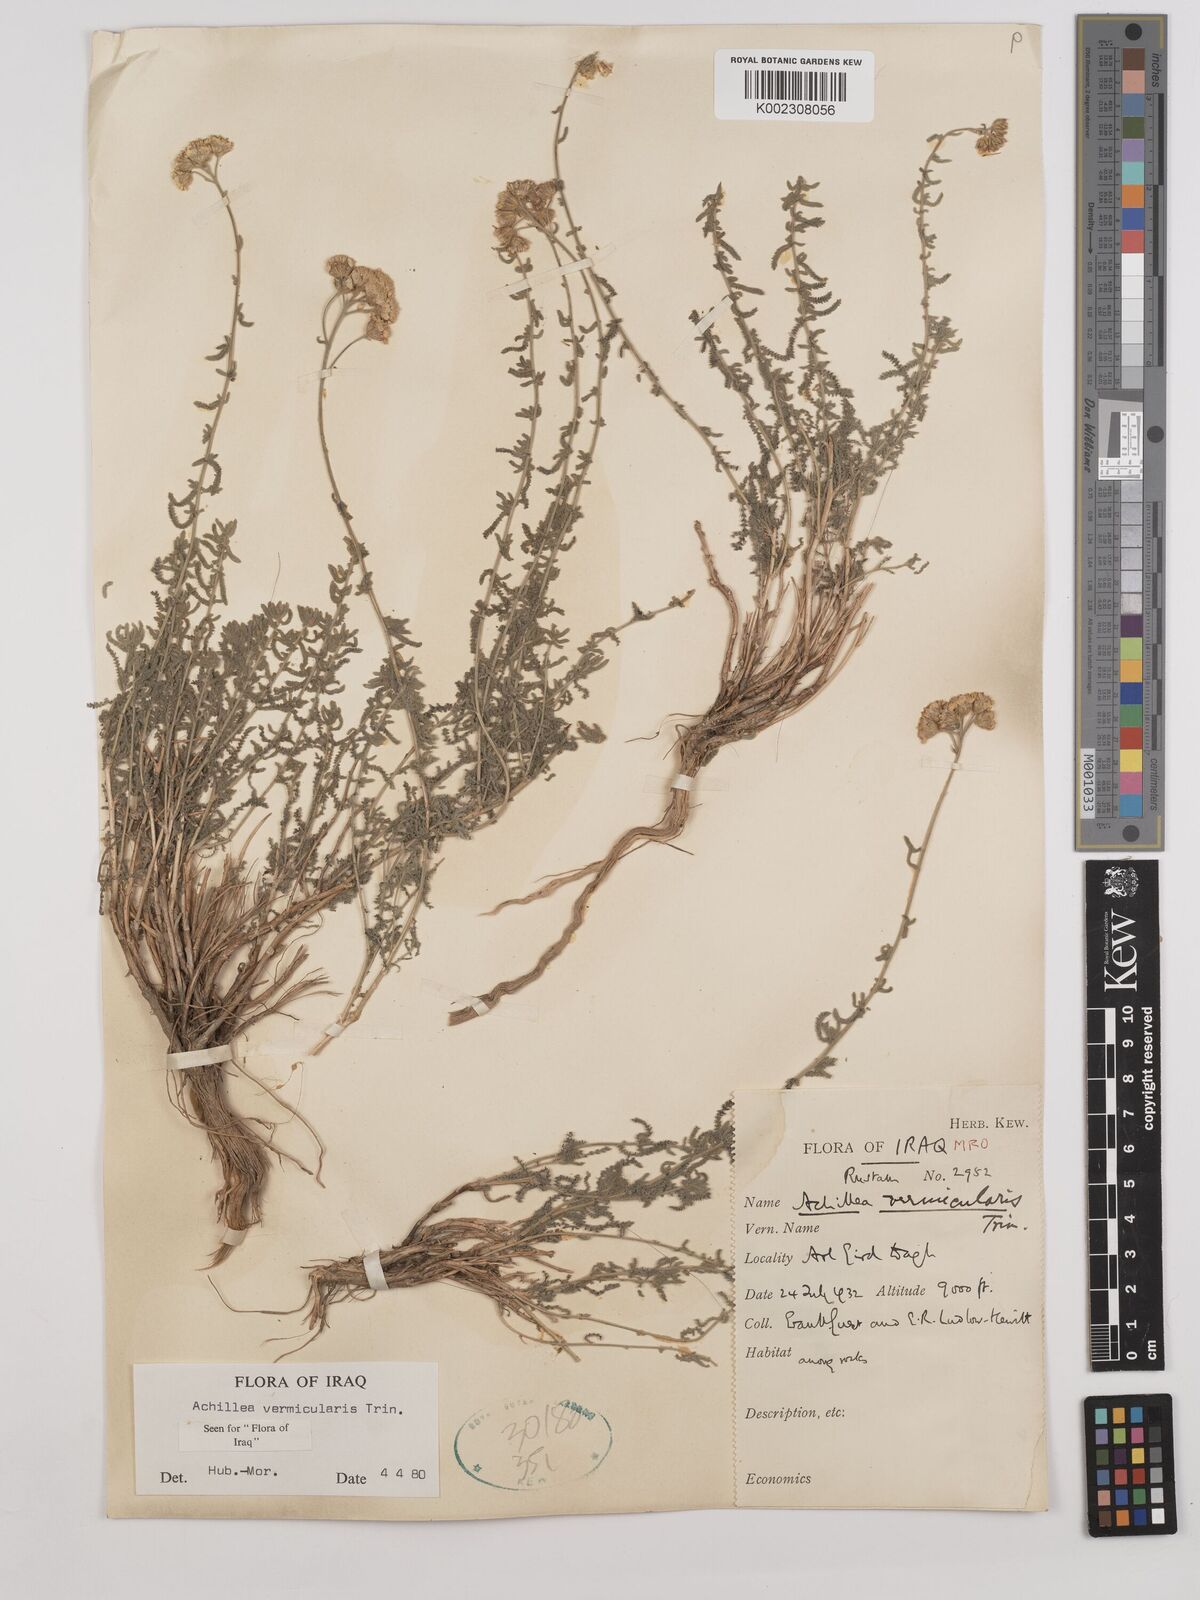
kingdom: Plantae
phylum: Tracheophyta
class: Magnoliopsida
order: Asterales
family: Asteraceae
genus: Achillea
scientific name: Achillea vermicularis
